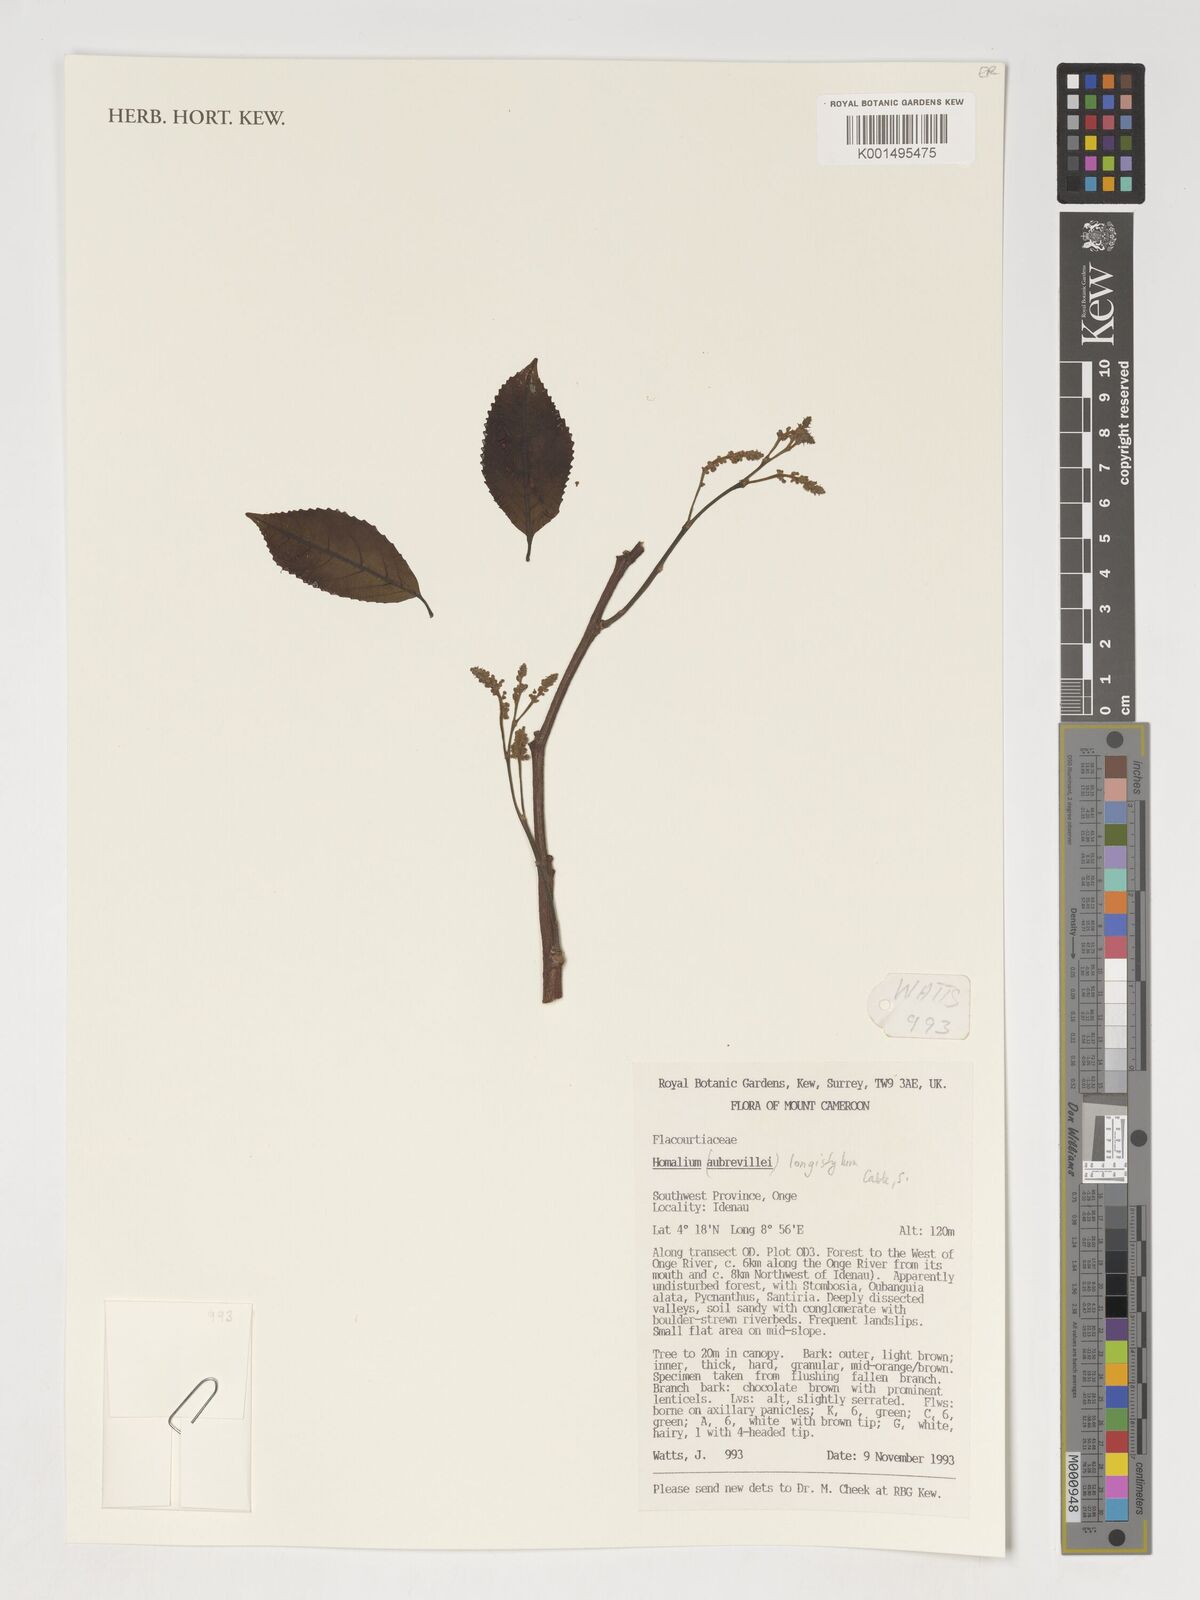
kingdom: Plantae
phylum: Tracheophyta
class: Magnoliopsida
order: Malpighiales
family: Salicaceae
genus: Homalium
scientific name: Homalium
